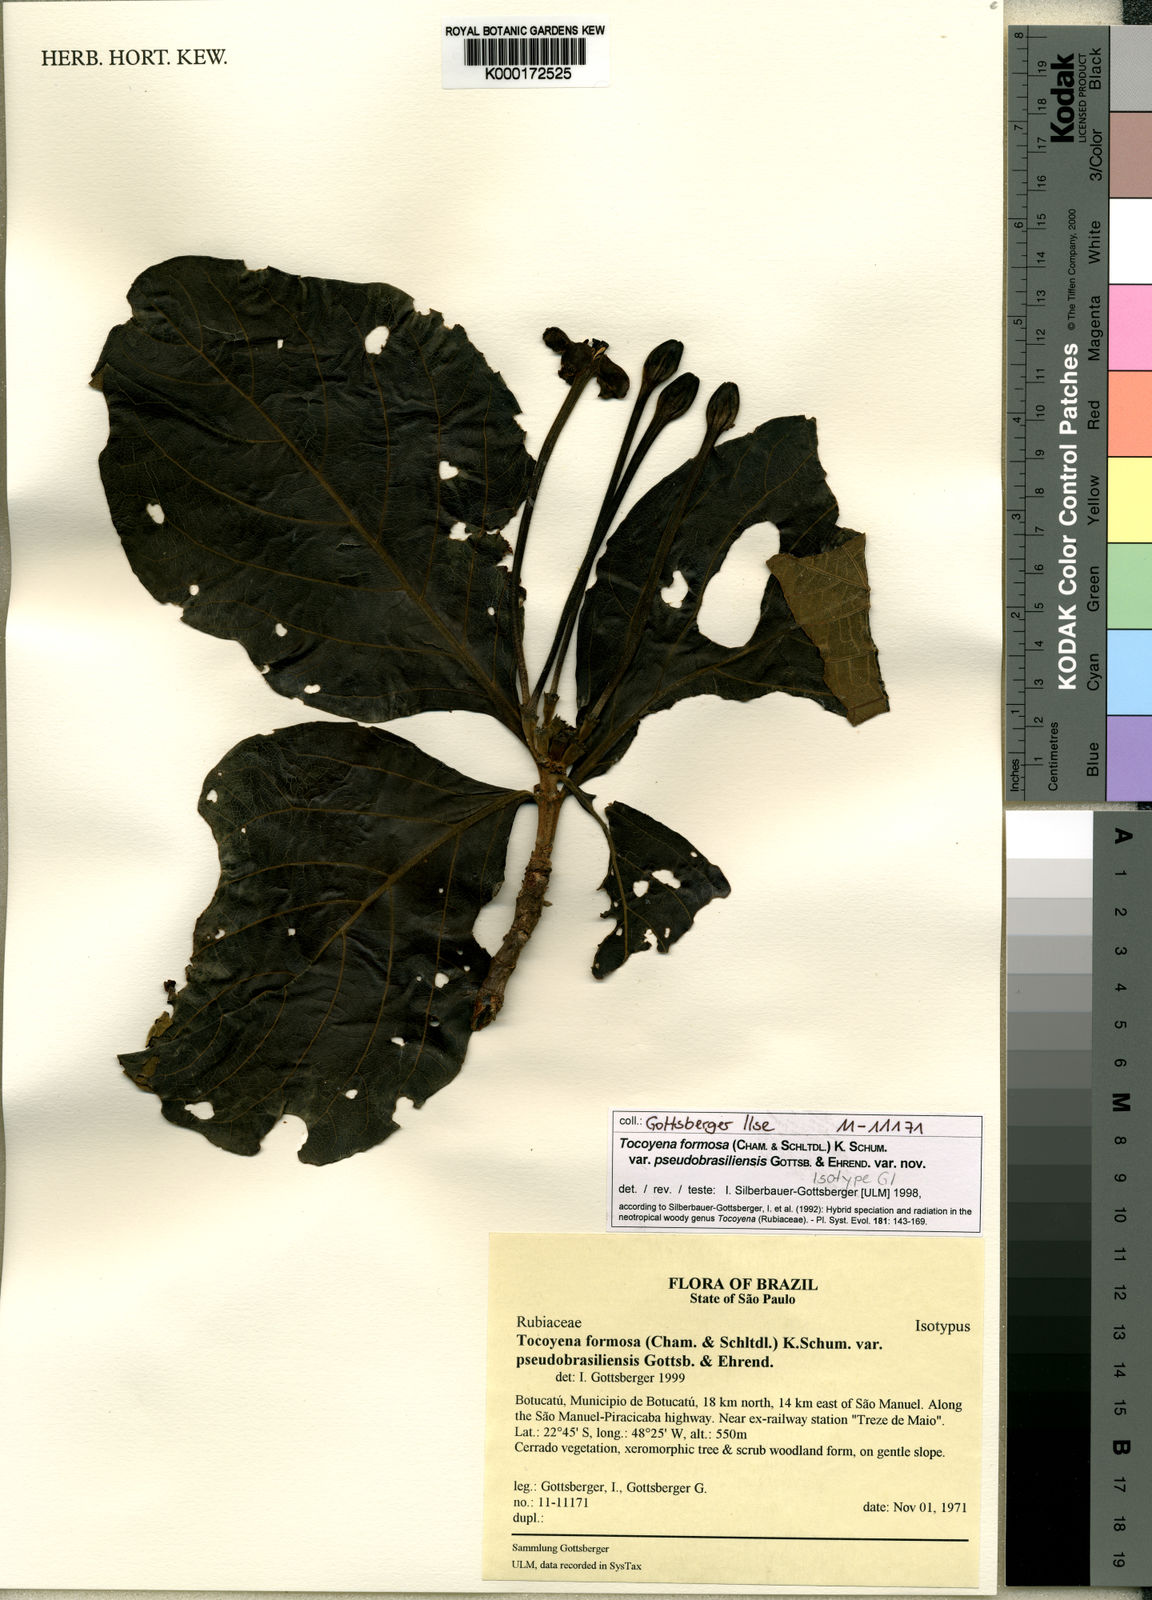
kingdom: Plantae
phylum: Tracheophyta
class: Magnoliopsida
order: Gentianales
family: Rubiaceae
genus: Tocoyena
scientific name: Tocoyena formosa
